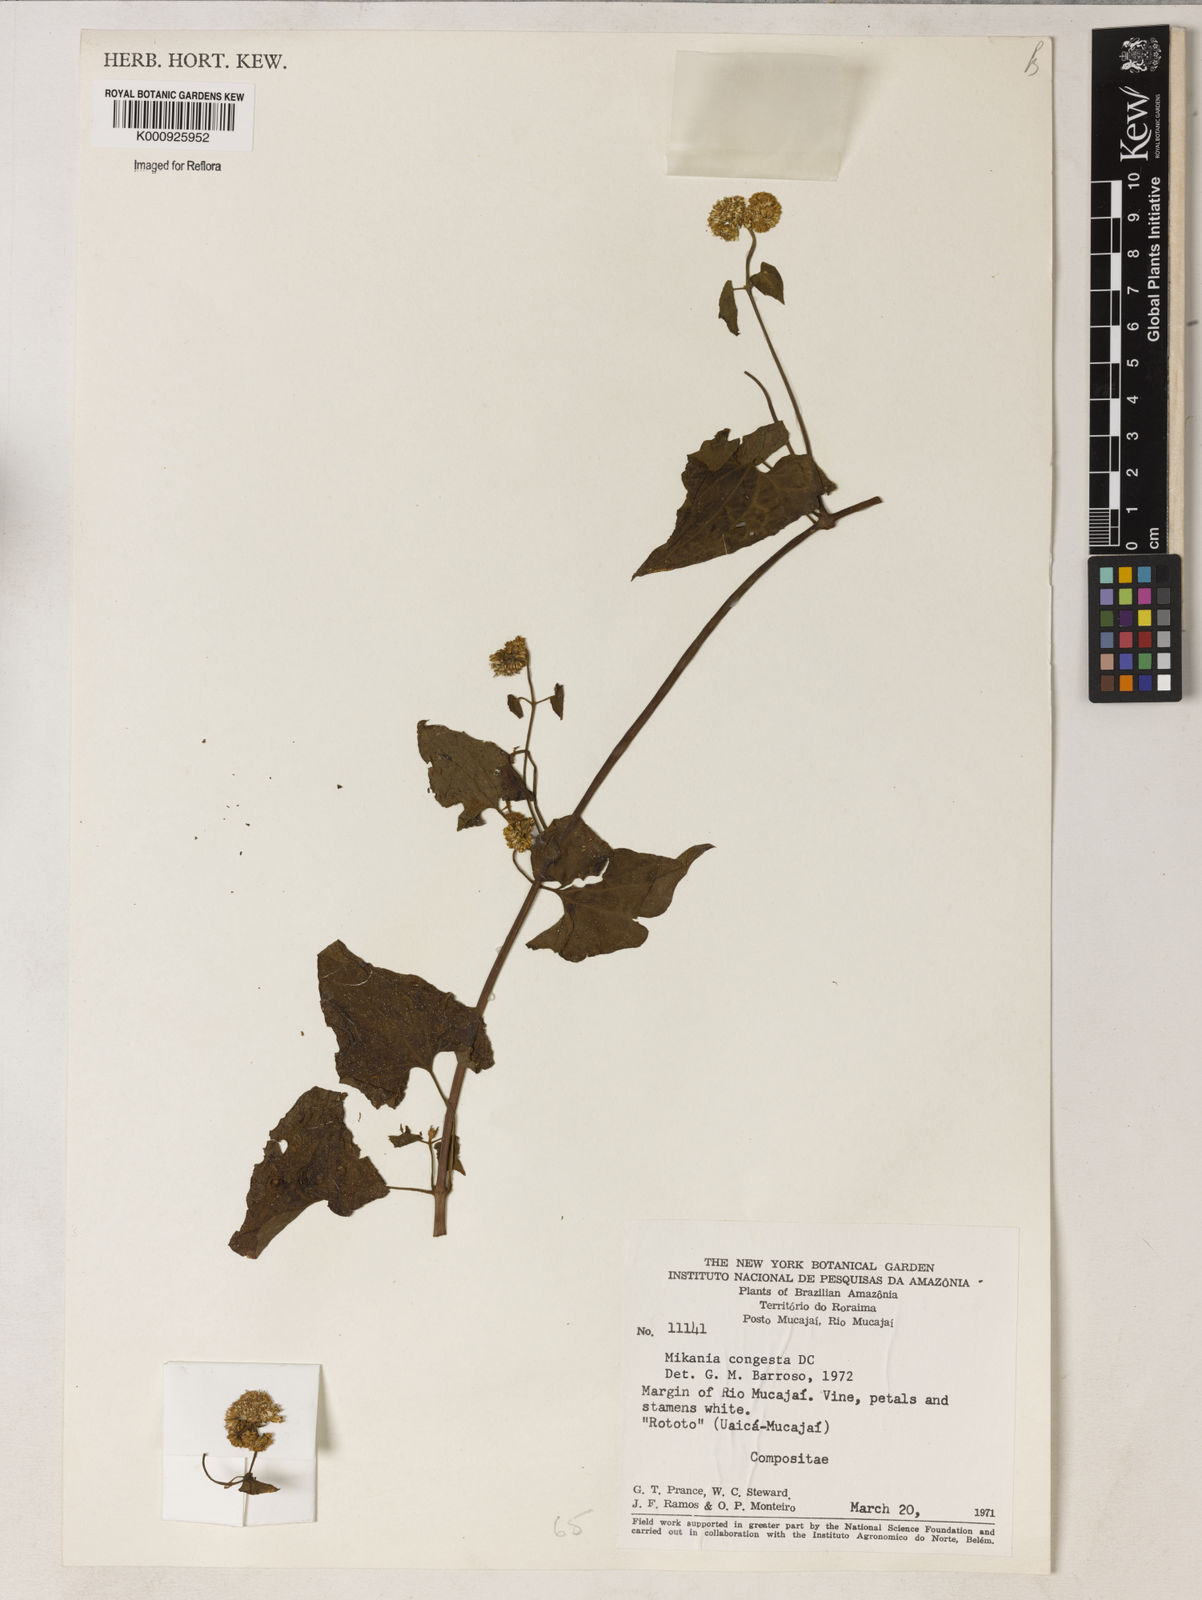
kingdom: Plantae
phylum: Tracheophyta
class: Magnoliopsida
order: Asterales
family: Asteraceae
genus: Mikania
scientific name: Mikania congesta
